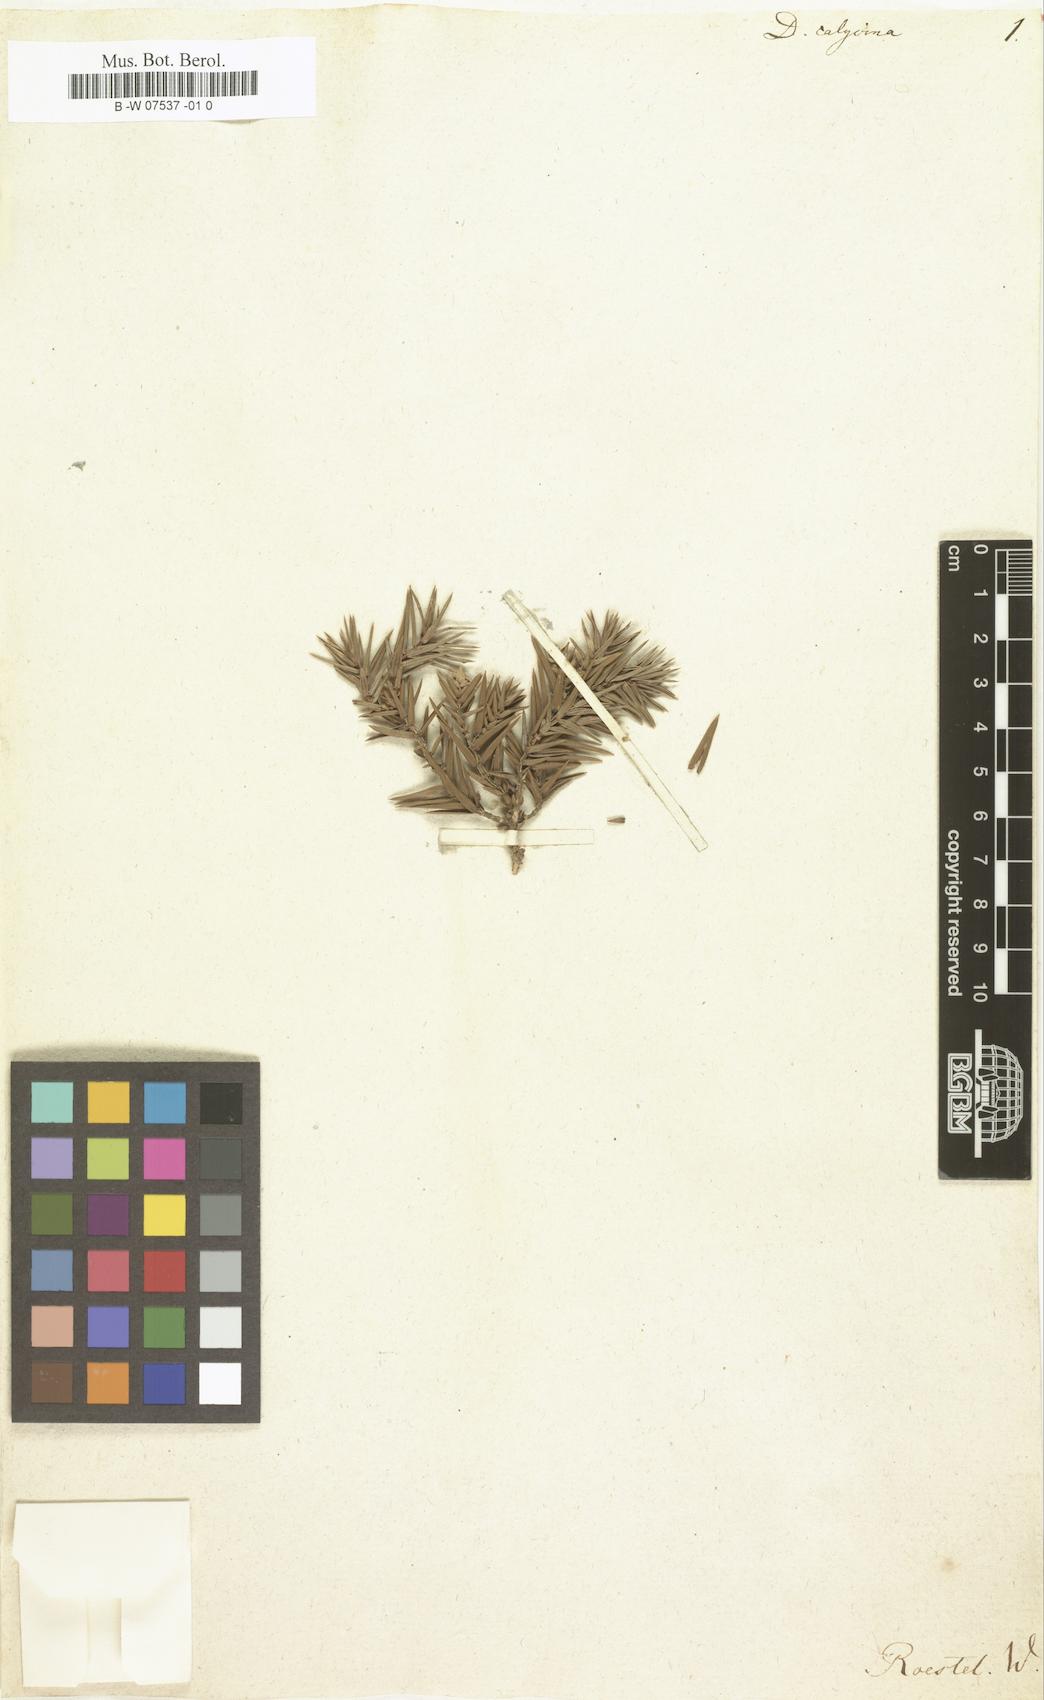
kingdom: Plantae
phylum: Tracheophyta
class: Magnoliopsida
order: Malvales
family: Thymelaeaceae
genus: Thymelaea
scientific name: Thymelaea
